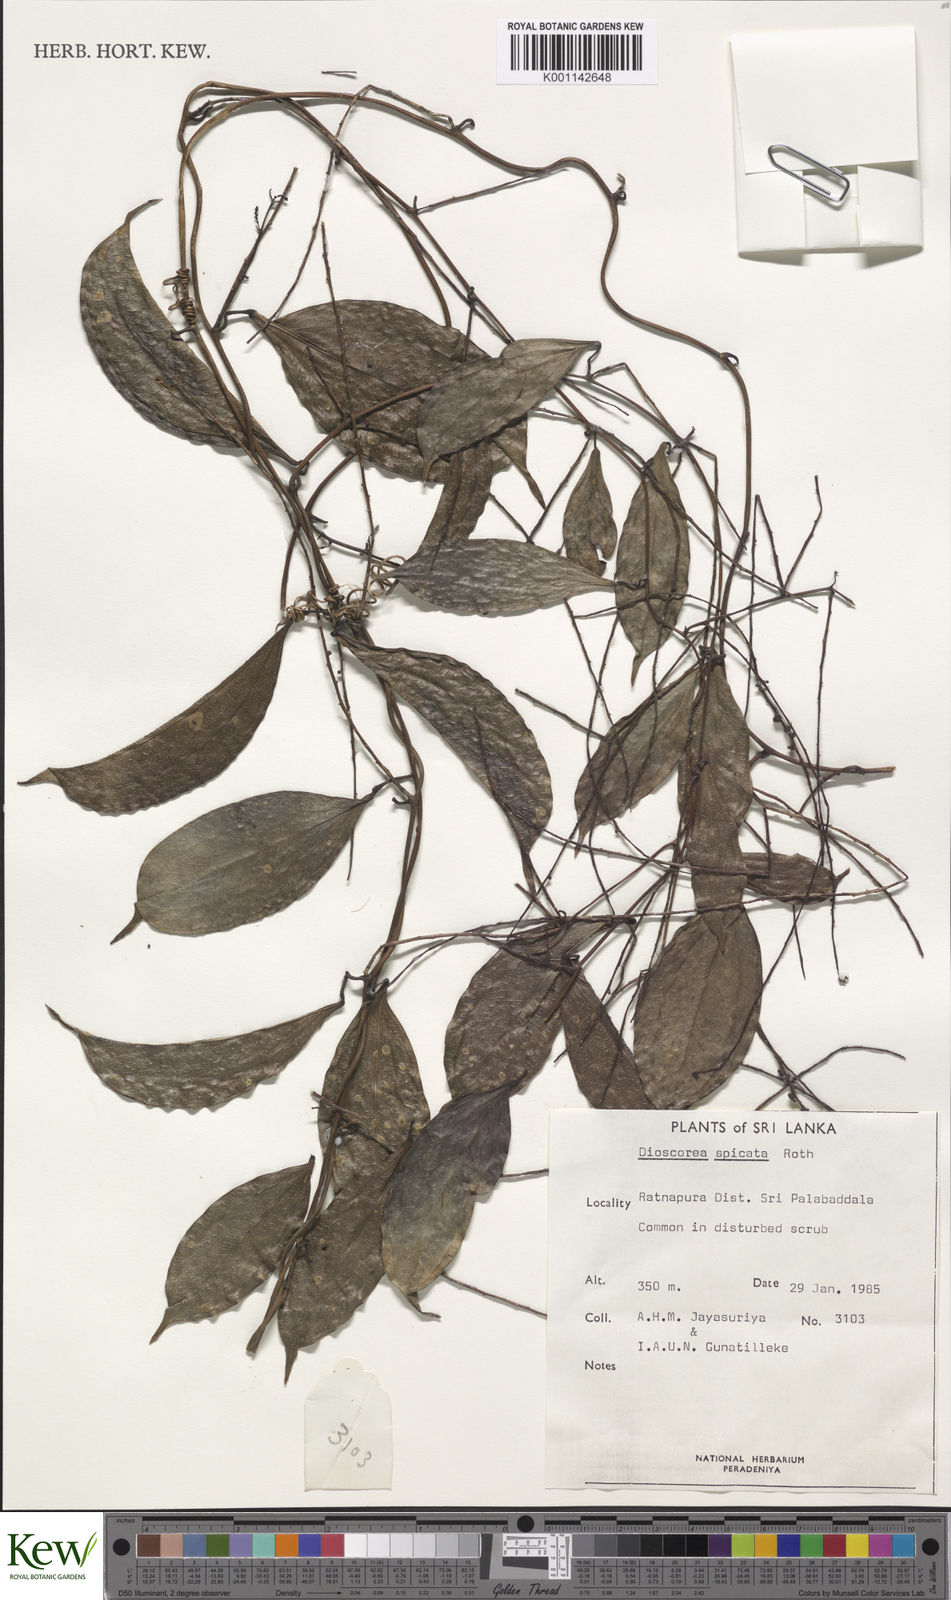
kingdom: Plantae
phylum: Tracheophyta
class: Liliopsida
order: Dioscoreales
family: Dioscoreaceae
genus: Dioscorea
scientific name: Dioscorea spicata
